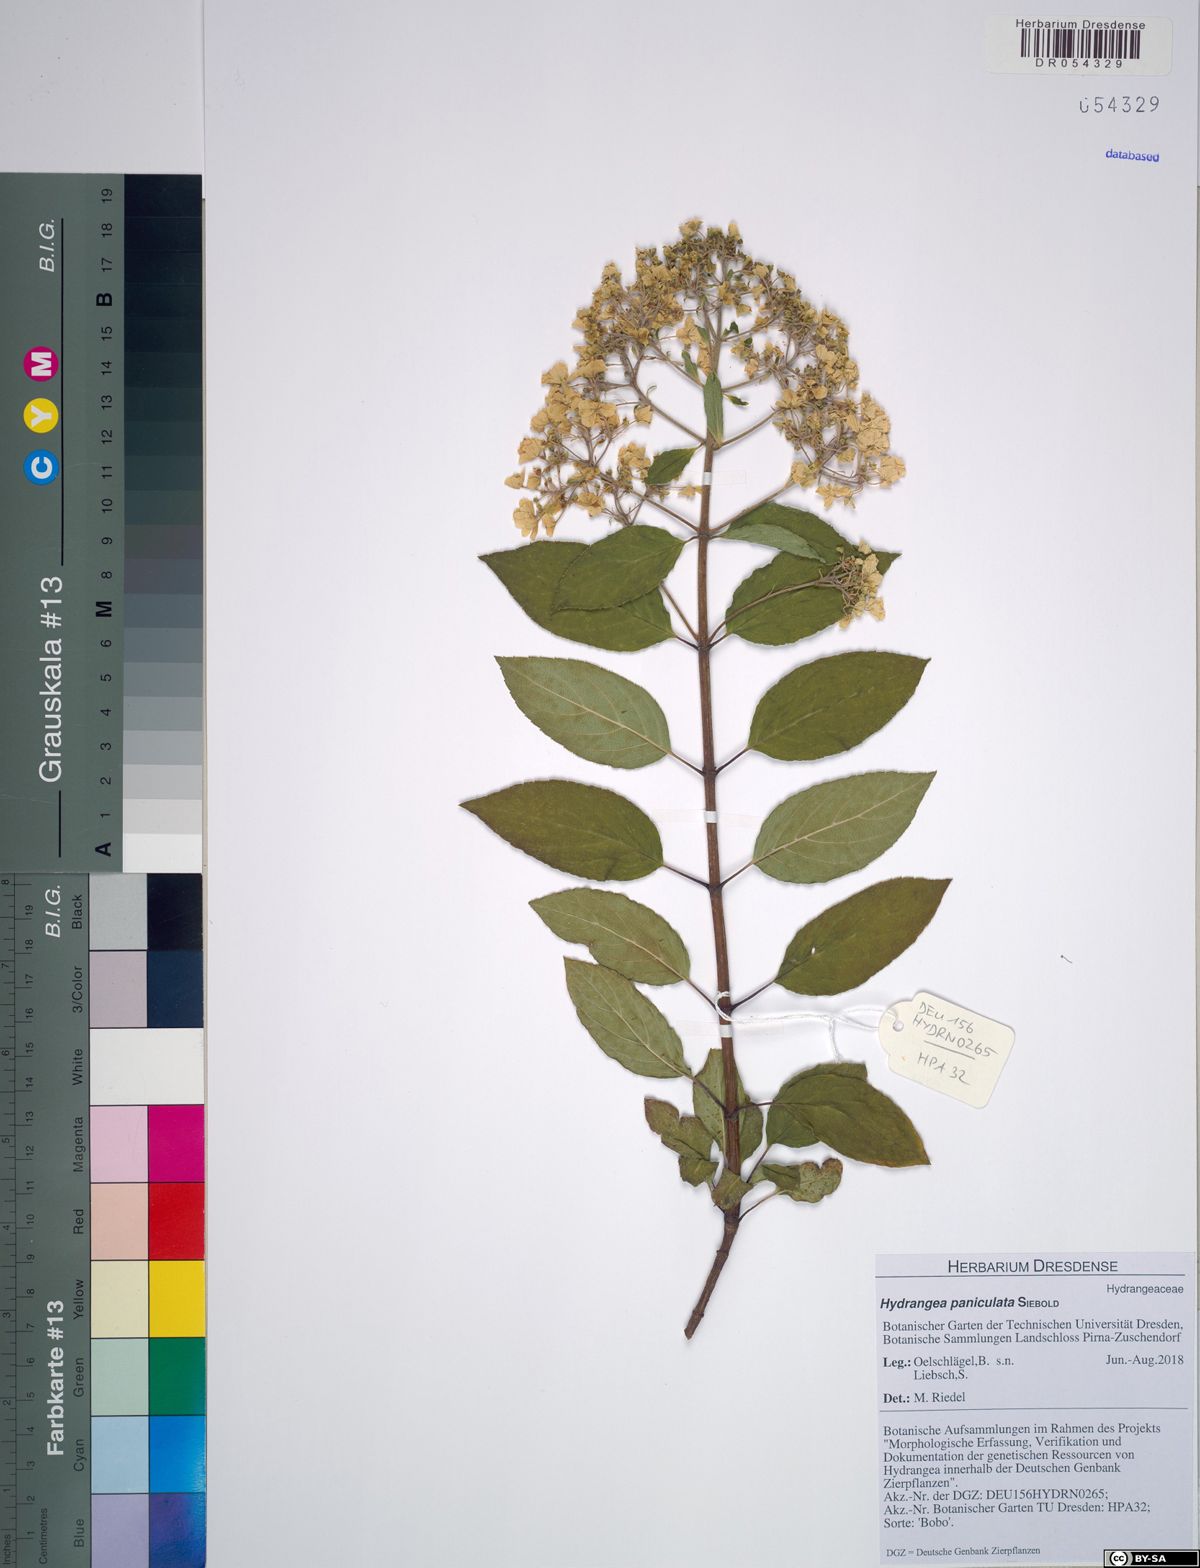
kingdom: Plantae
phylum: Tracheophyta
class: Magnoliopsida
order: Cornales
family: Hydrangeaceae
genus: Hydrangea
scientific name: Hydrangea paniculata
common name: Panicled hydrangea
